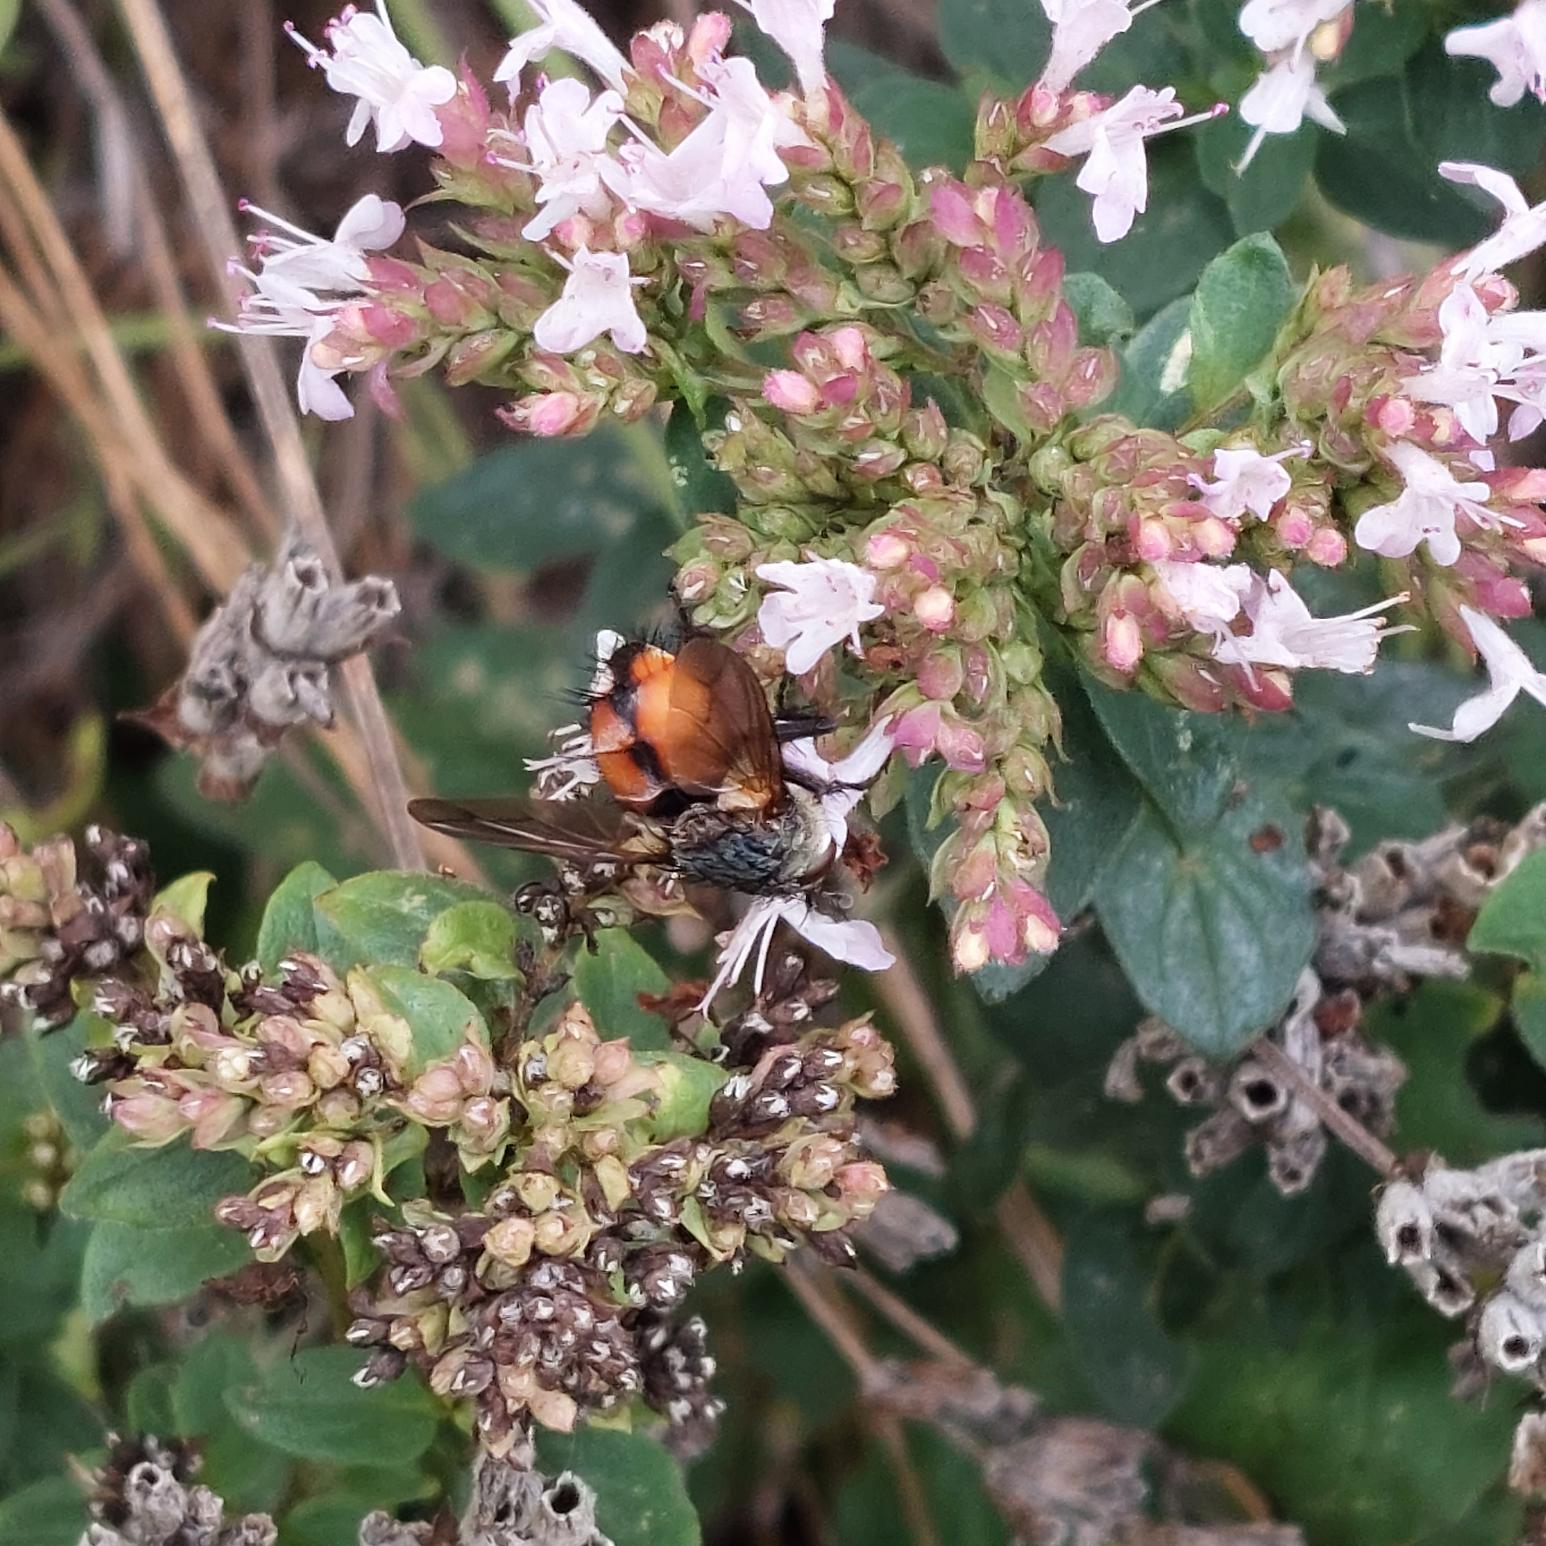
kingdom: Animalia
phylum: Arthropoda
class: Insecta
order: Diptera
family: Tachinidae
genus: Peleteria
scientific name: Peleteria rubescens
